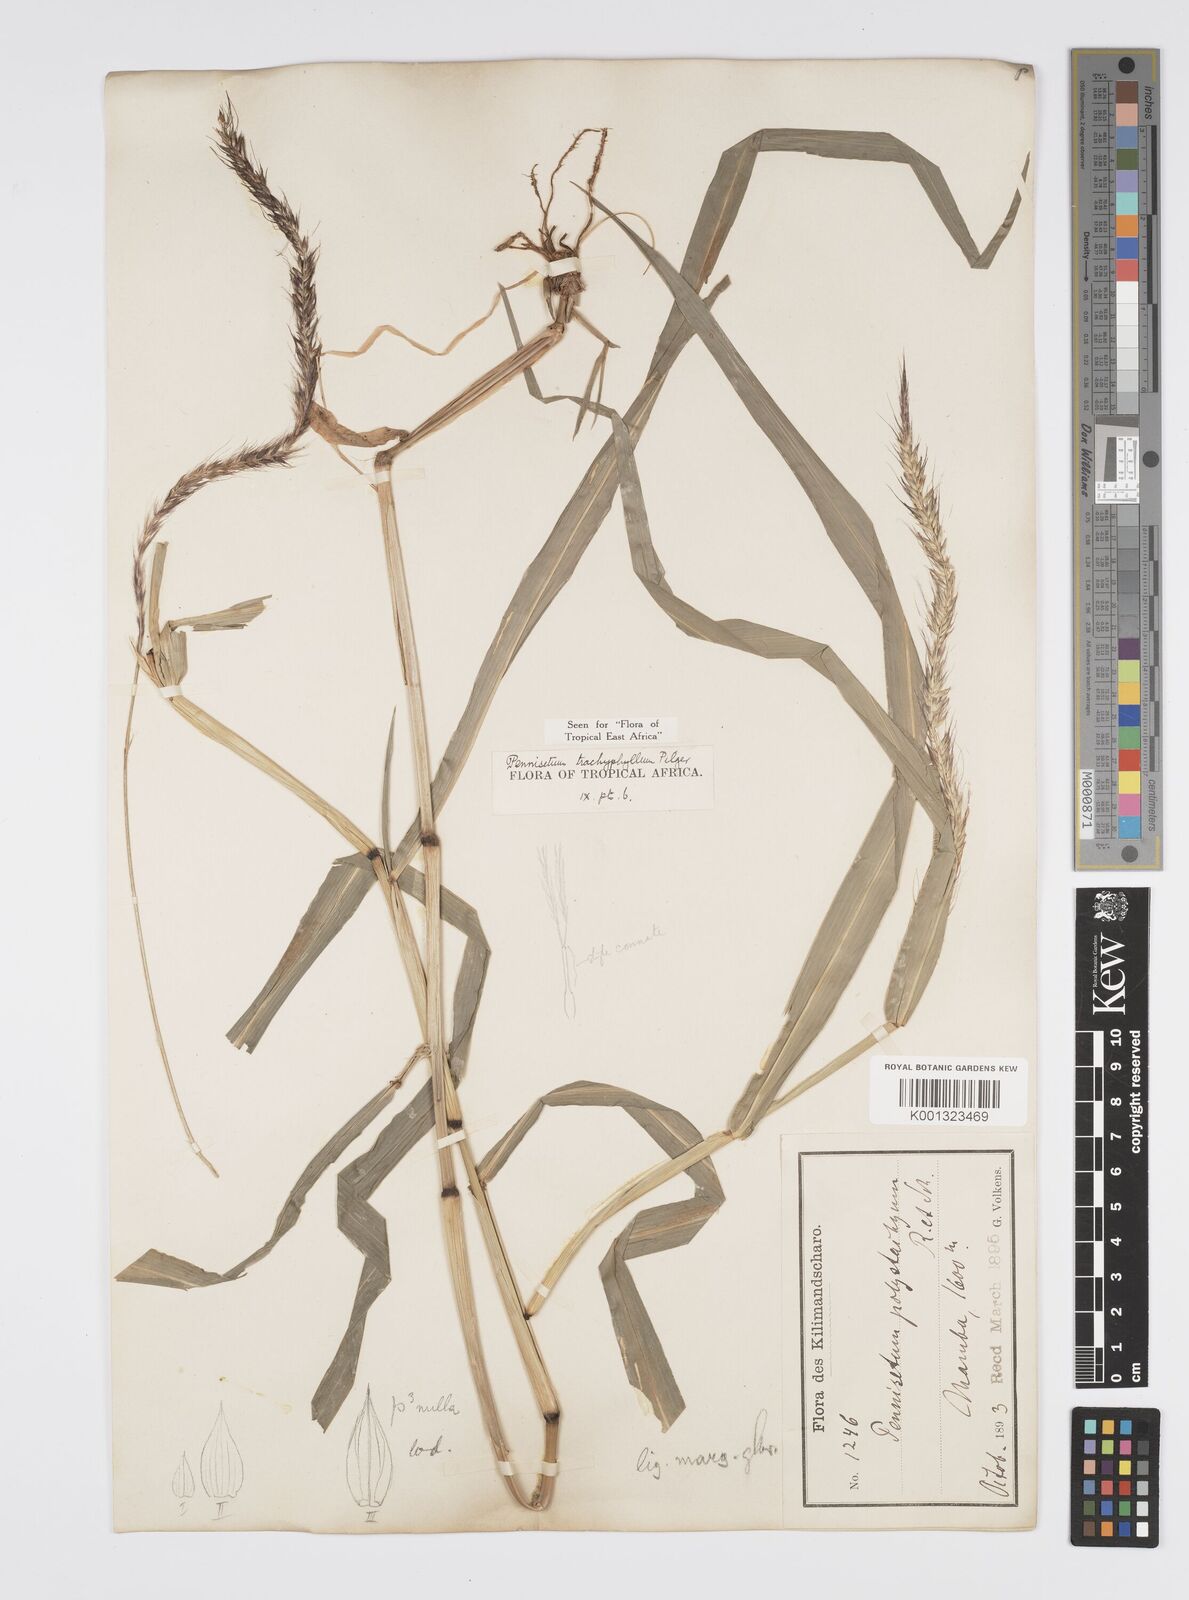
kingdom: Plantae
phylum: Tracheophyta
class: Liliopsida
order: Poales
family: Poaceae
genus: Cenchrus
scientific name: Cenchrus trachyphyllus
